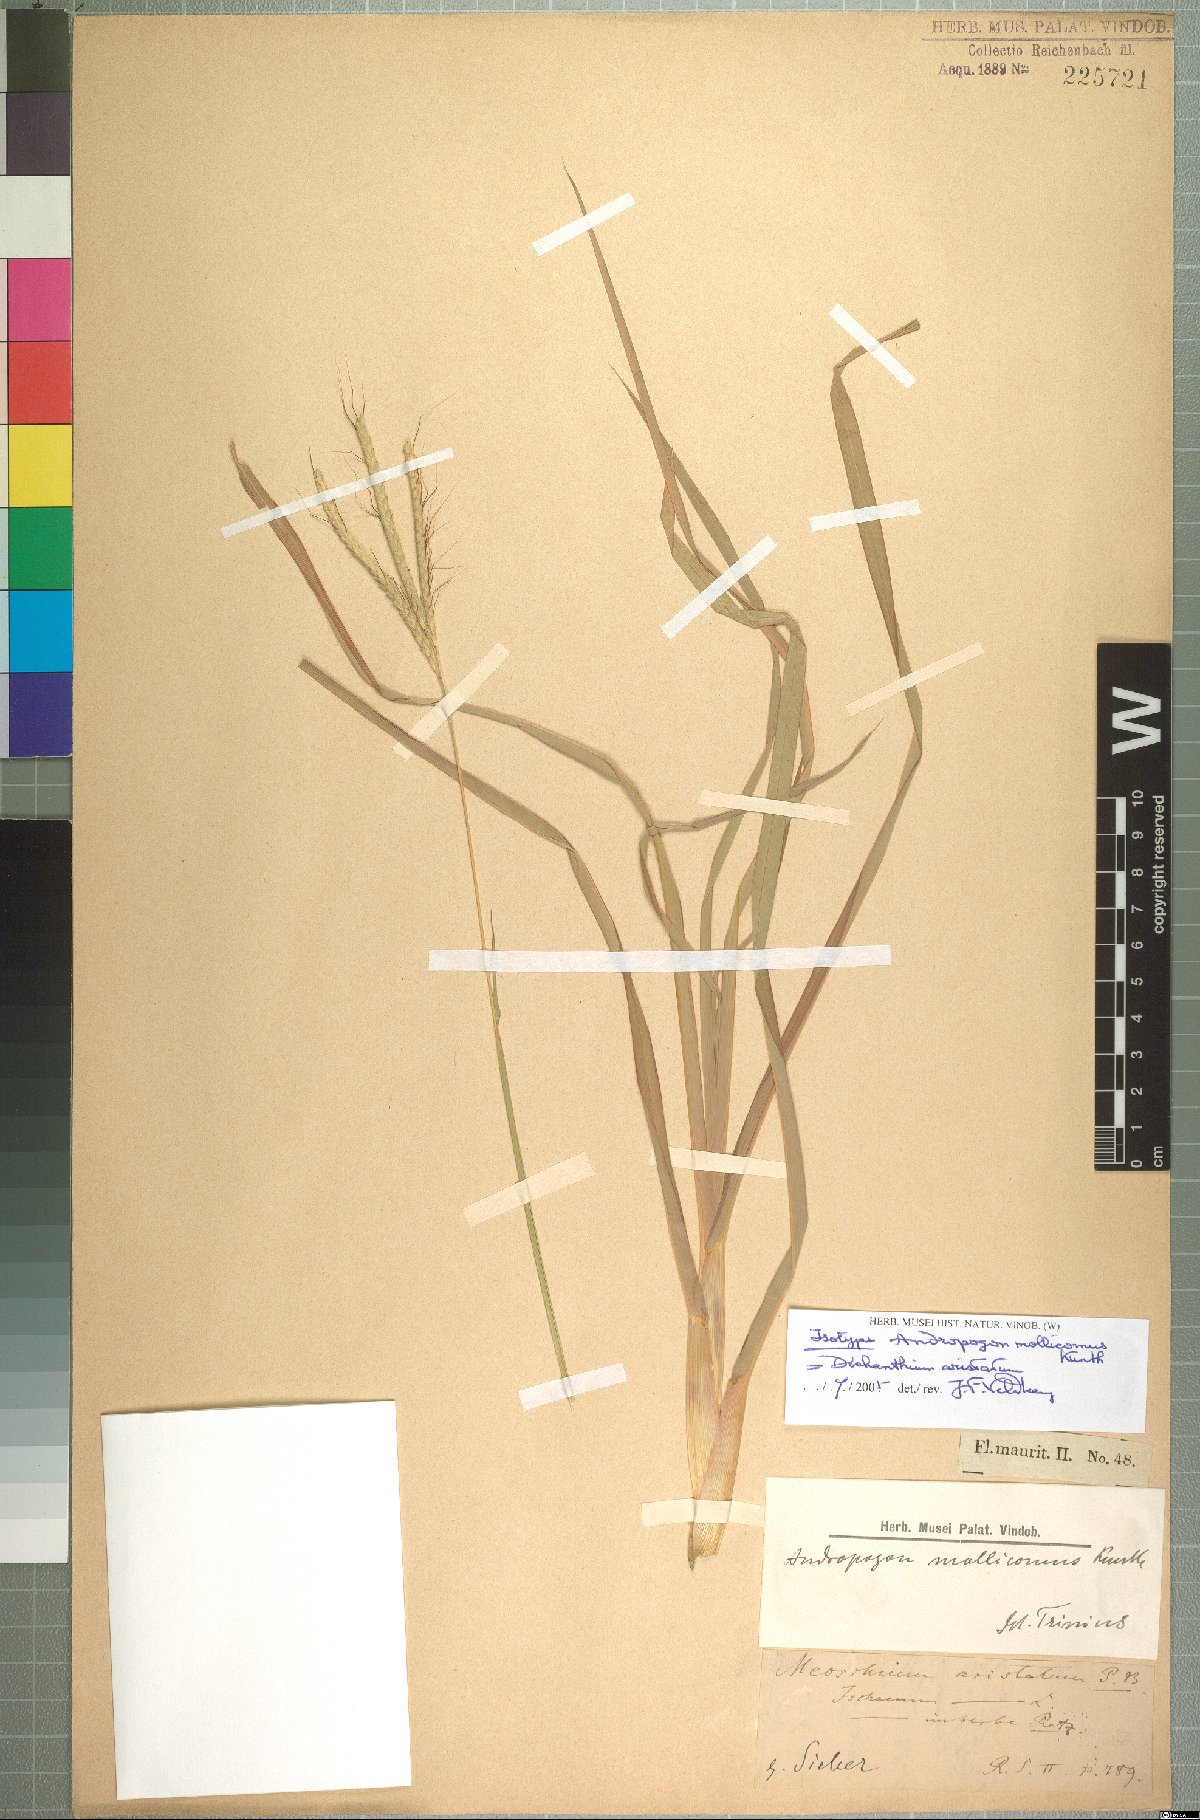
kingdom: Plantae
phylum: Tracheophyta
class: Liliopsida
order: Poales
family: Poaceae
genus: Dichanthium
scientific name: Dichanthium aristatum
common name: Angleton bluestem
